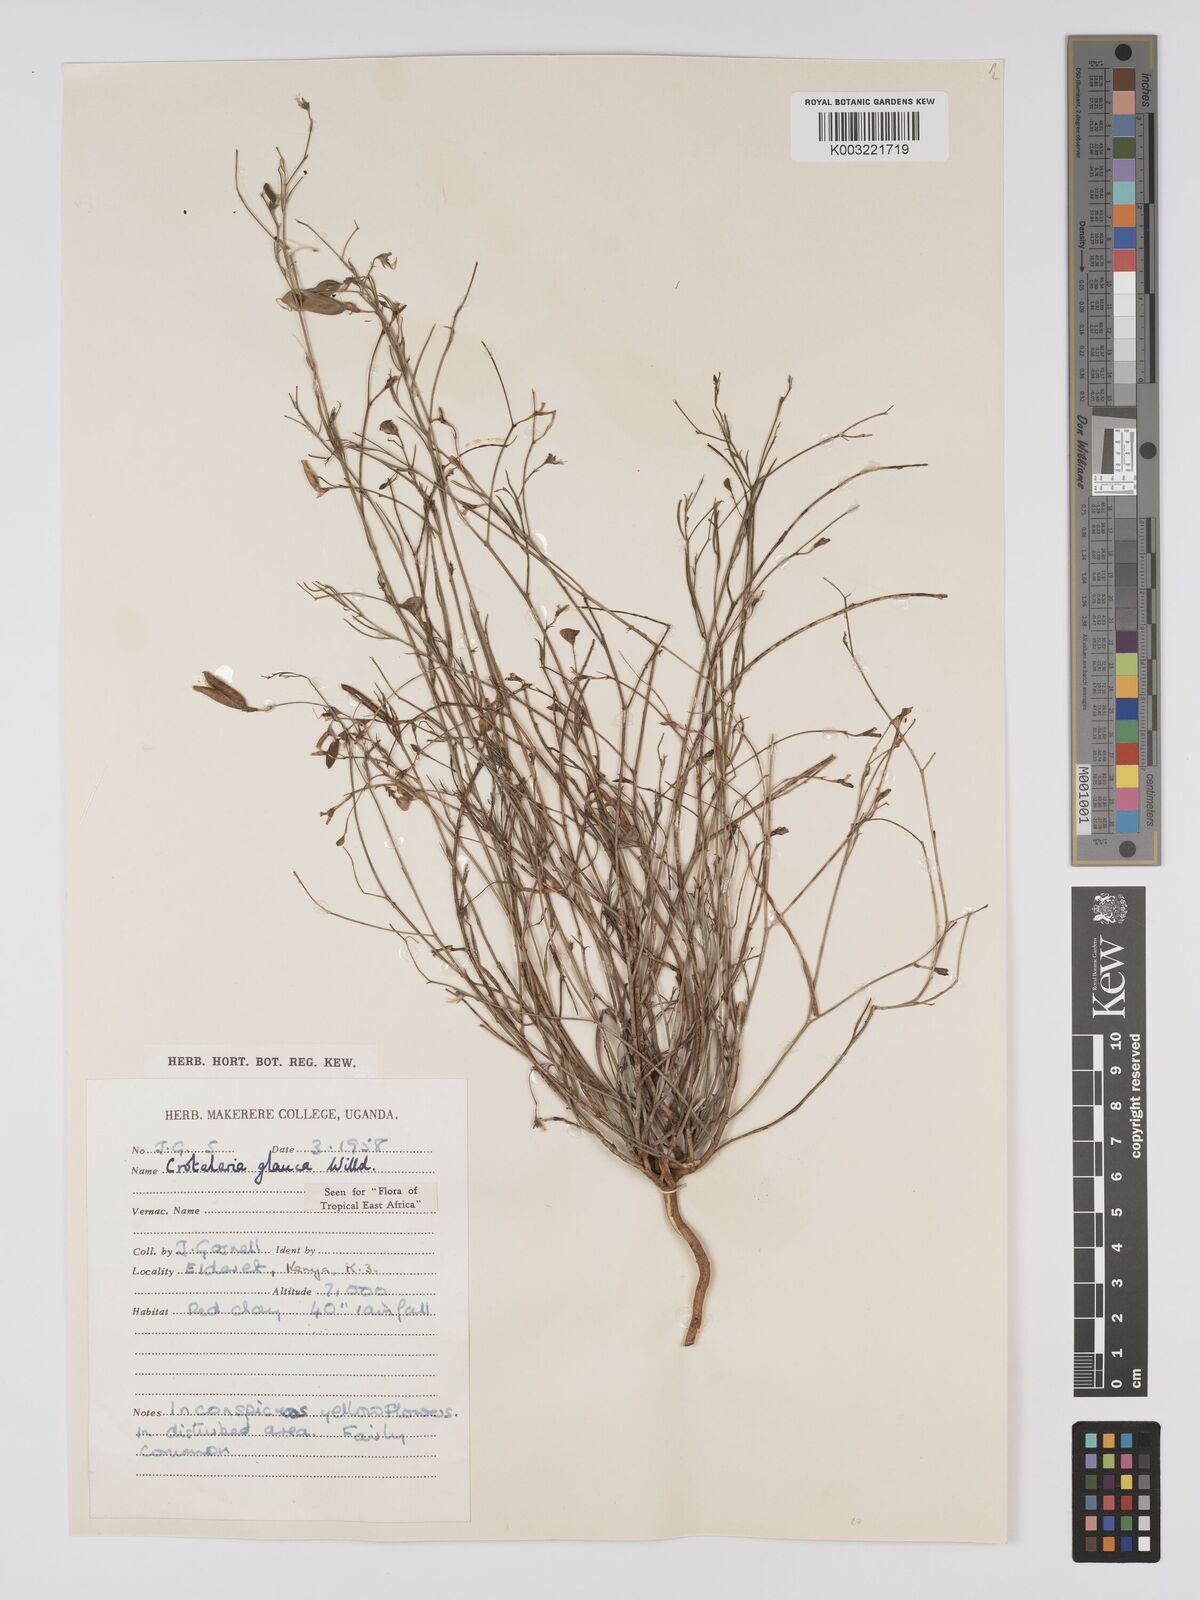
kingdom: Plantae
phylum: Tracheophyta
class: Magnoliopsida
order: Fabales
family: Fabaceae
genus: Crotalaria
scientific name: Crotalaria glauca
